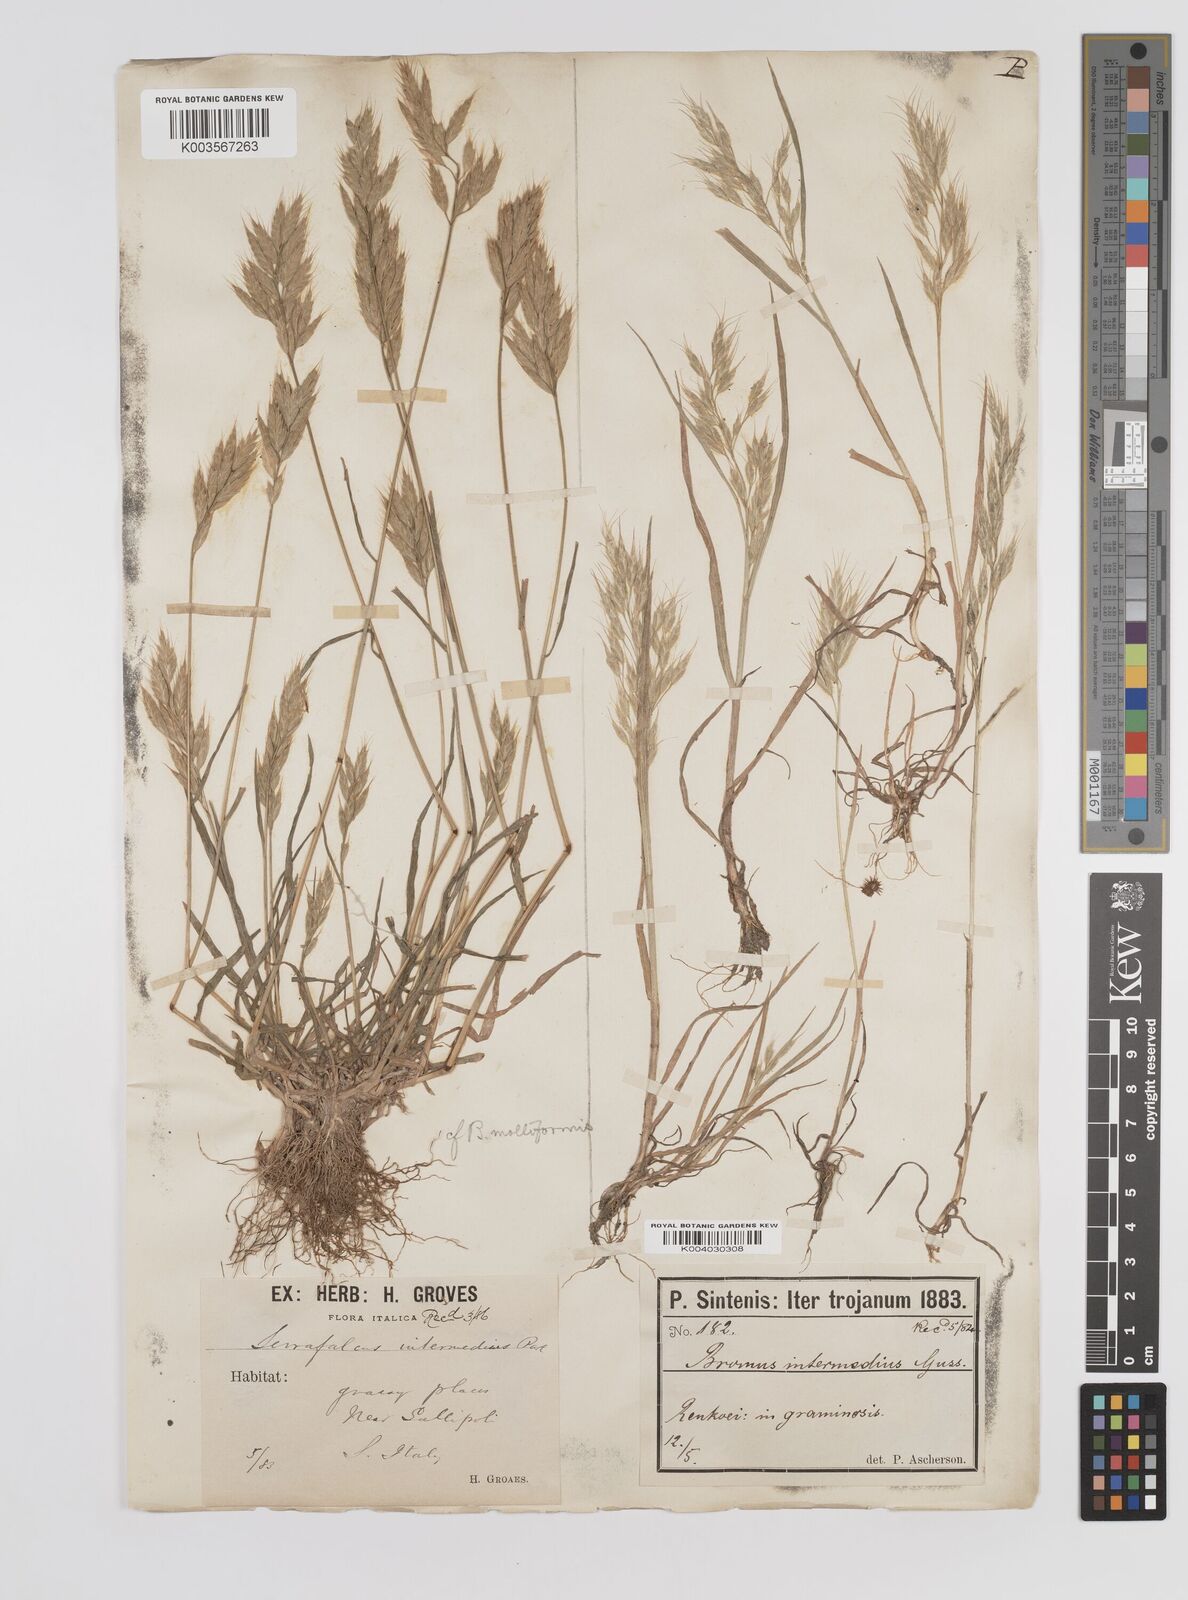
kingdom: Plantae
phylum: Tracheophyta
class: Liliopsida
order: Poales
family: Poaceae
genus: Bromus
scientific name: Bromus intermedius
